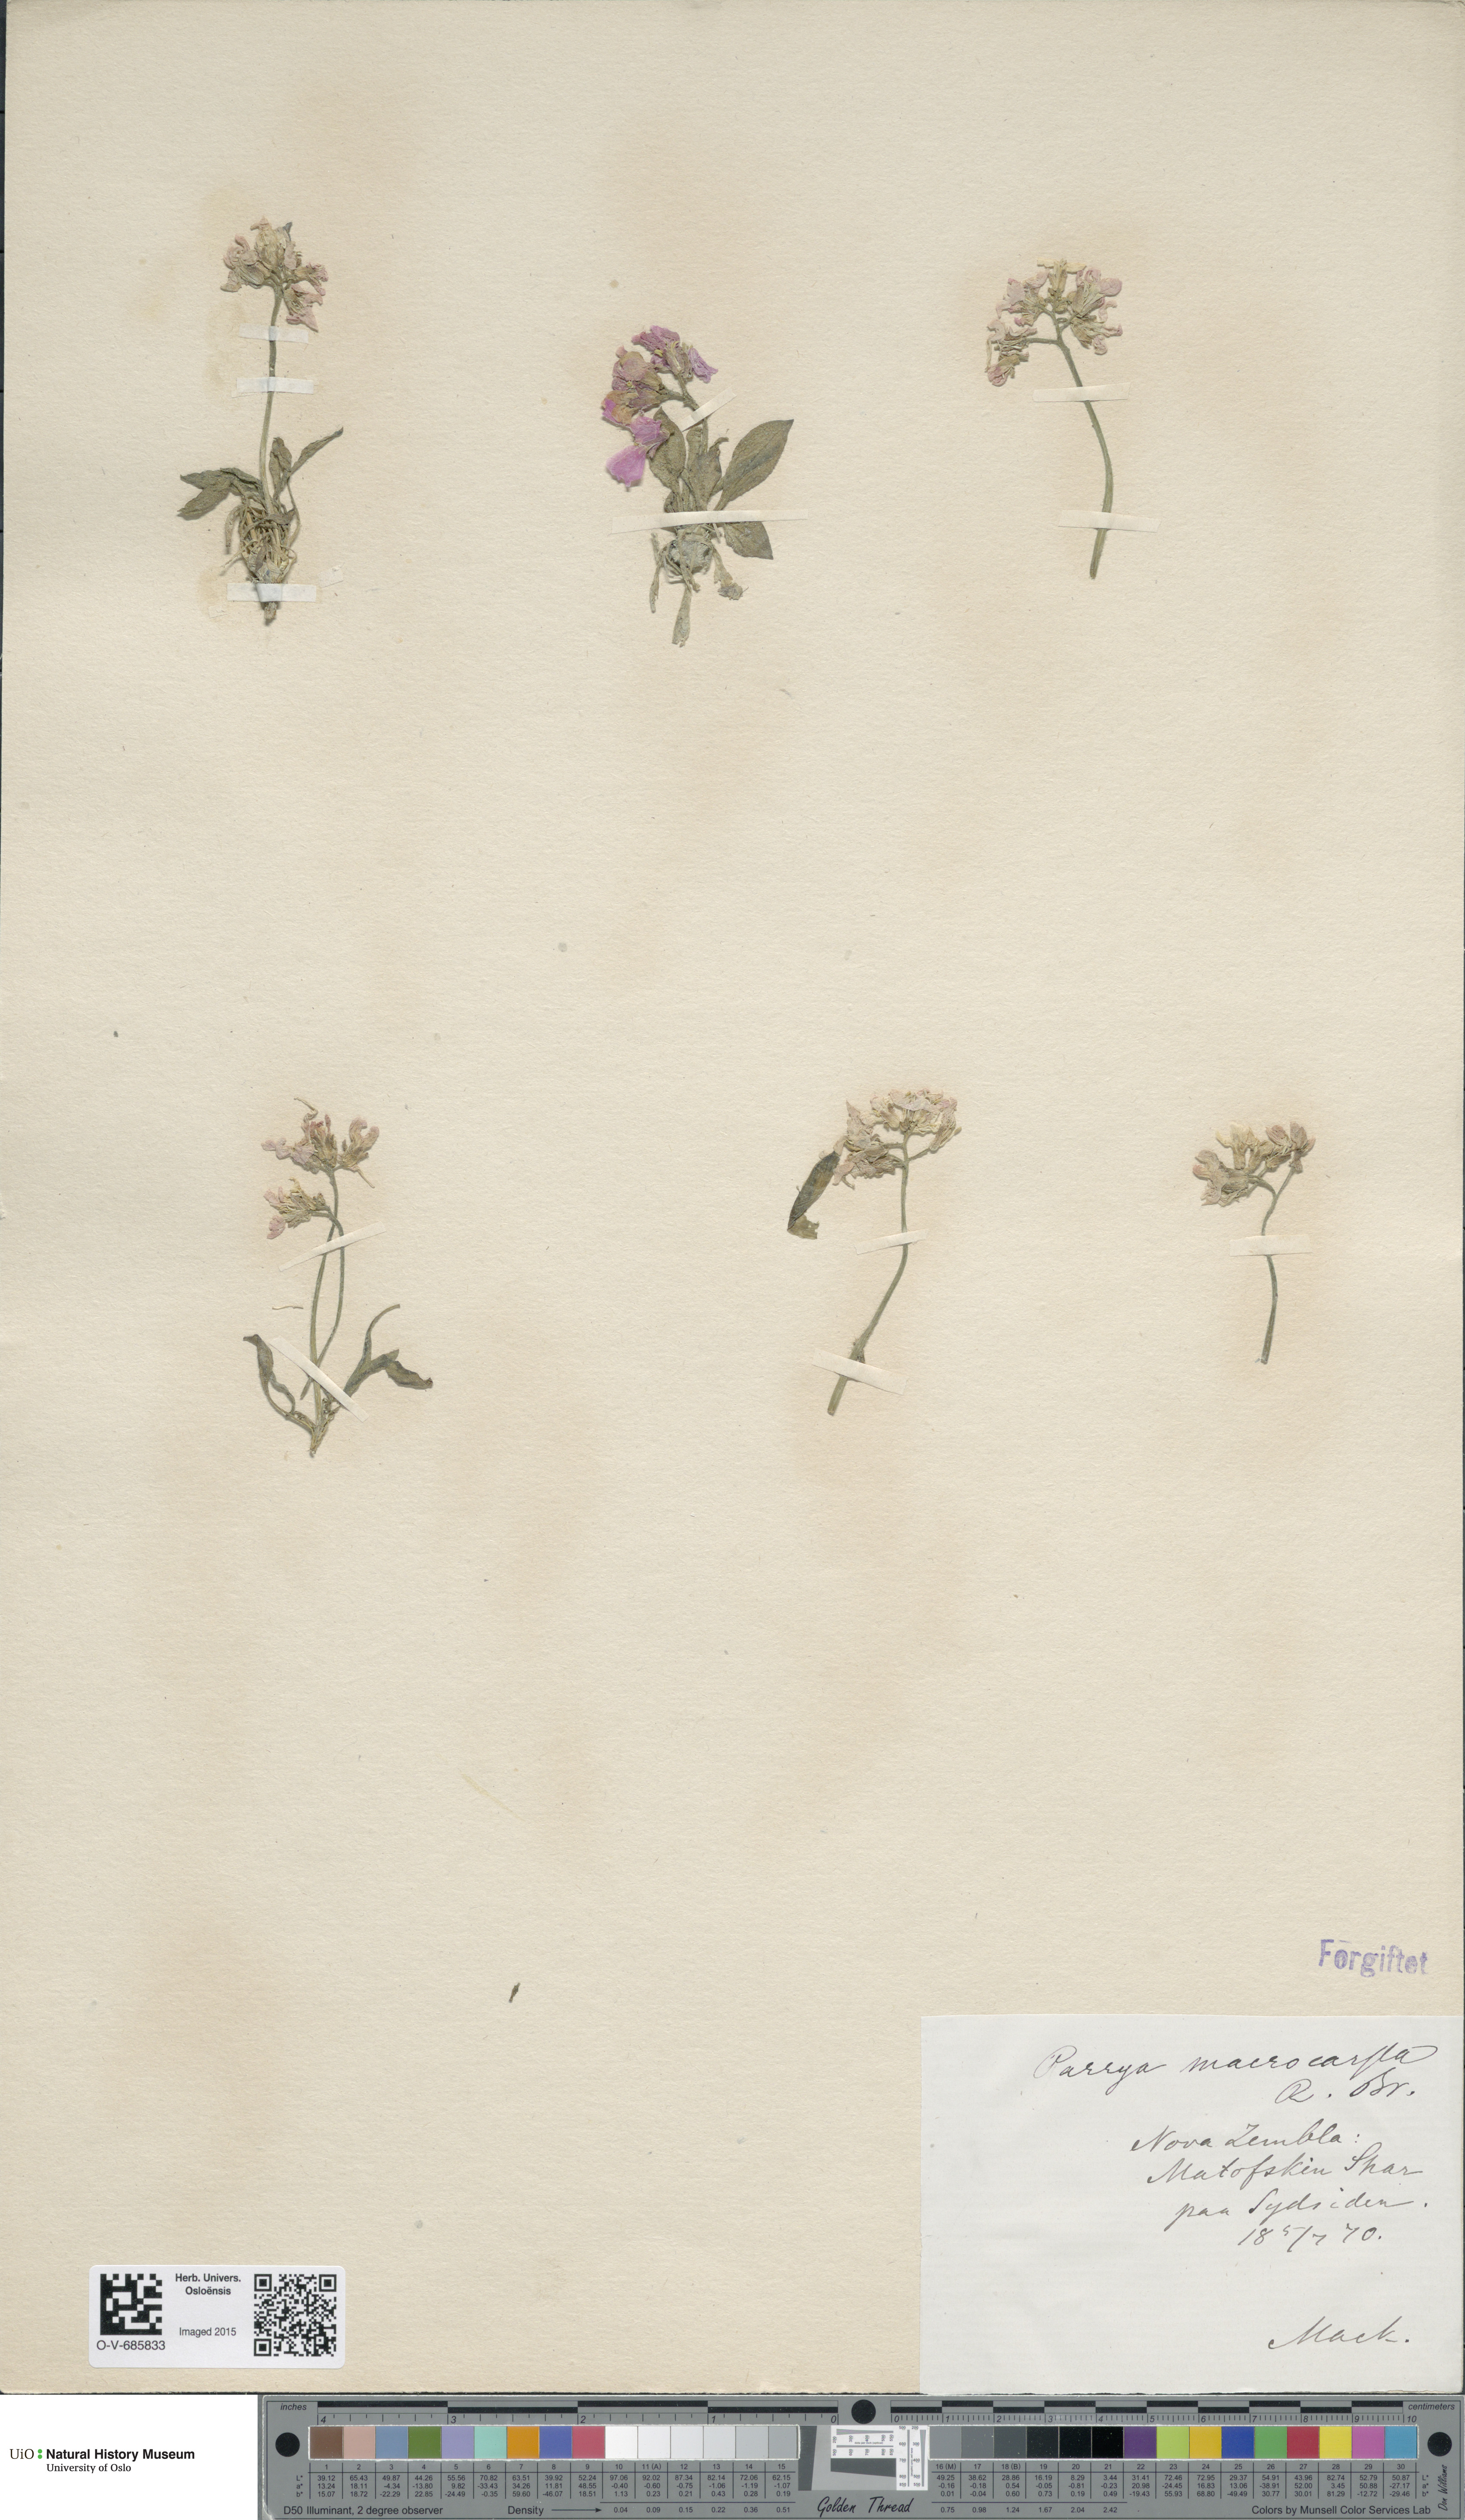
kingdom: Plantae
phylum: Tracheophyta
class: Magnoliopsida
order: Brassicales
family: Brassicaceae
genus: Parrya
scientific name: Parrya nudicaulis
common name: Naked-stemmed false wallflower
